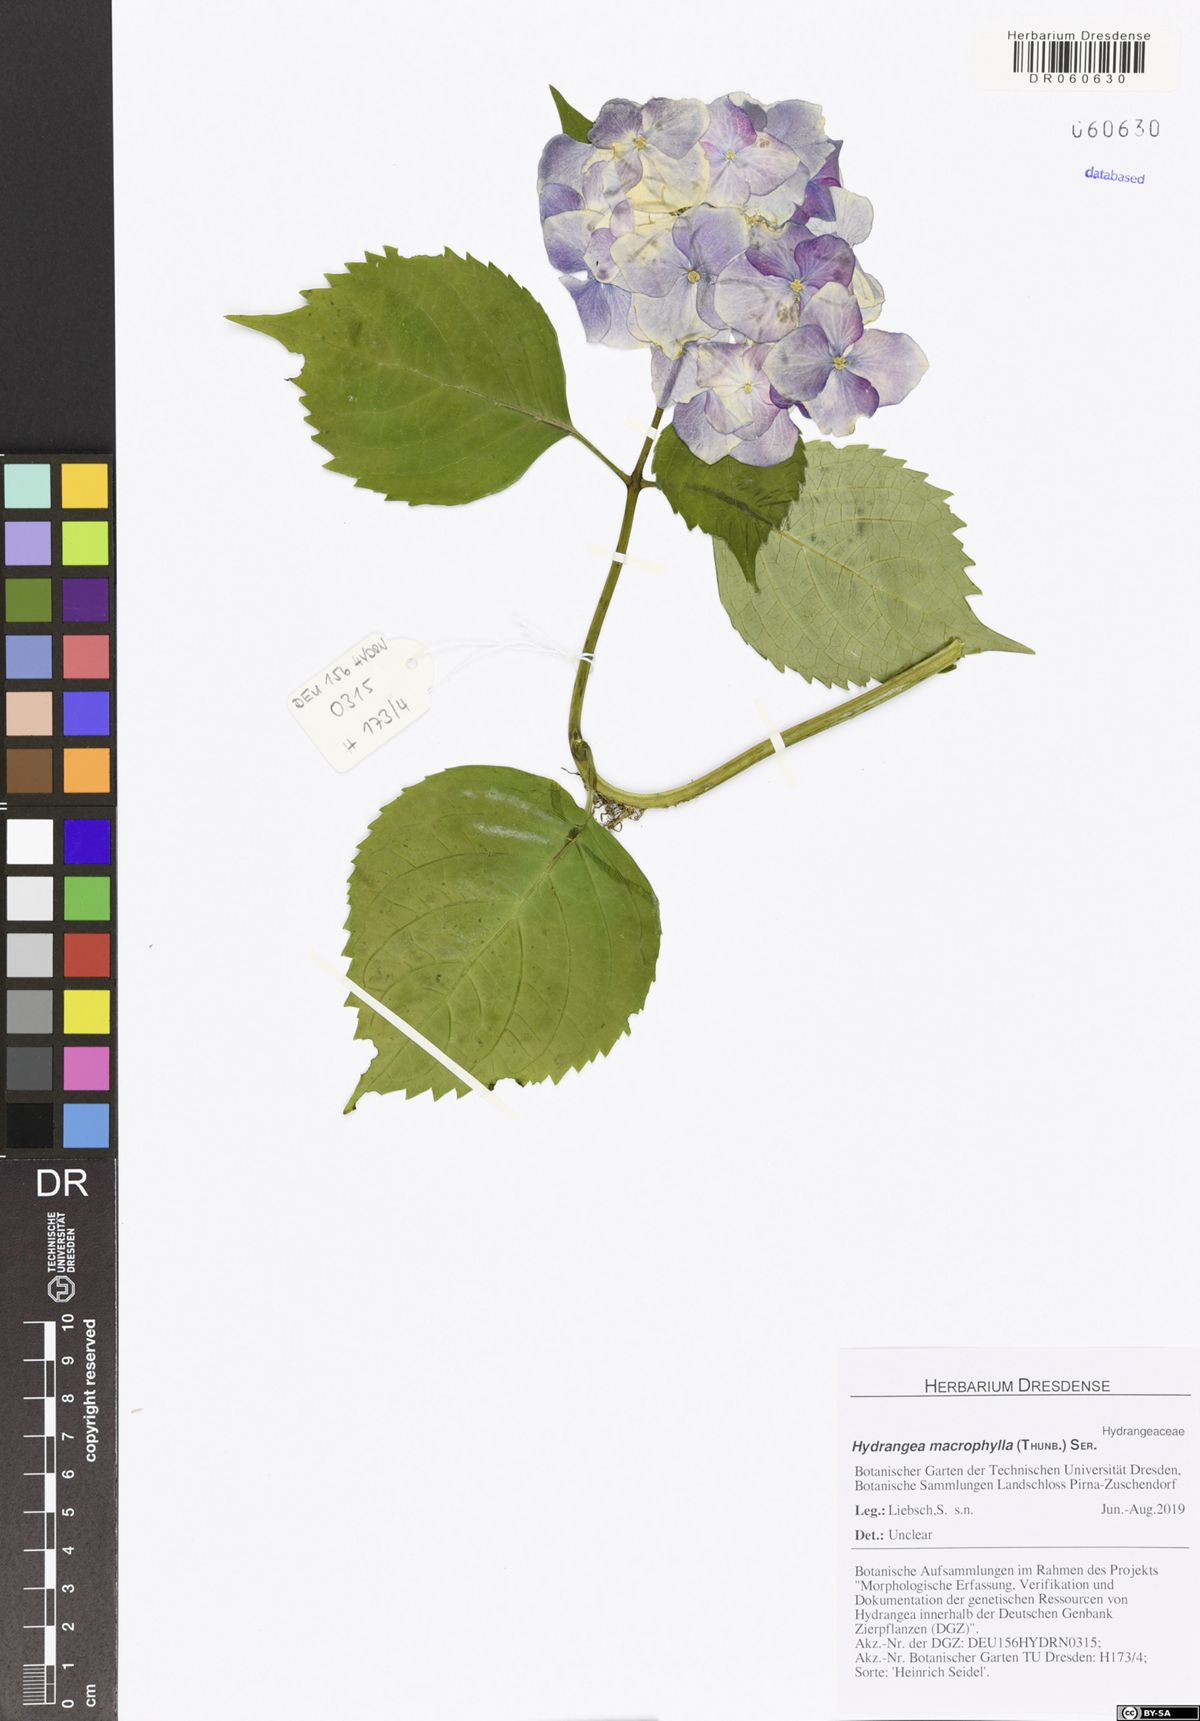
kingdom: Plantae
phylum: Tracheophyta
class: Magnoliopsida
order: Cornales
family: Hydrangeaceae
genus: Hydrangea
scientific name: Hydrangea macrophylla
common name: Hydrangea
